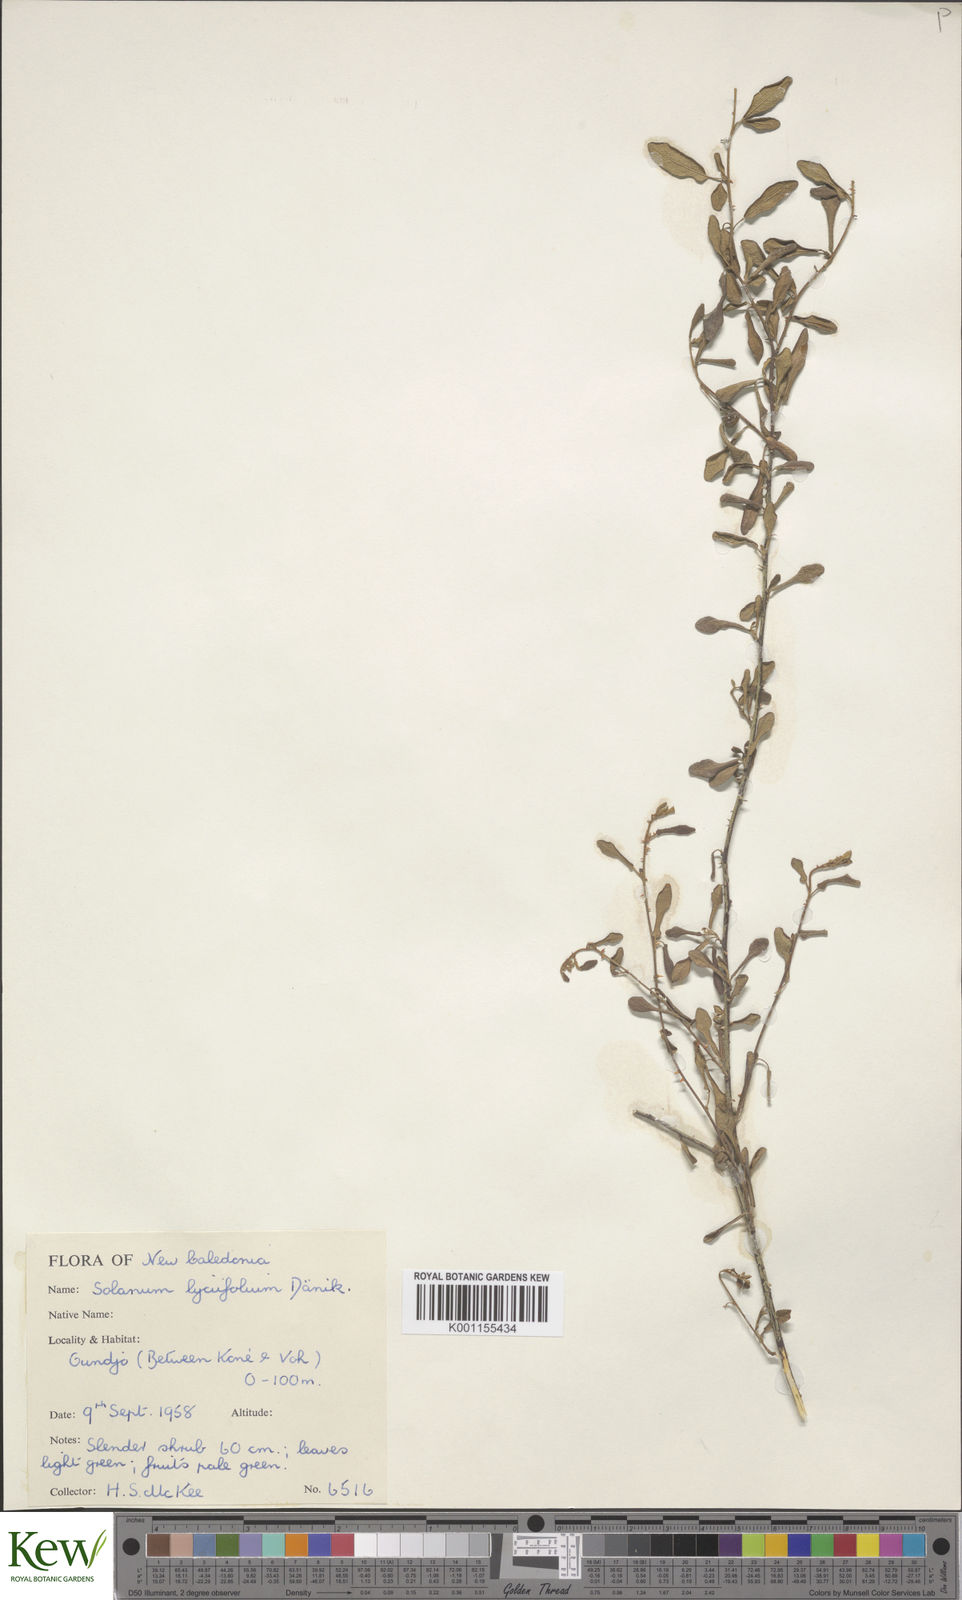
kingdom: Plantae
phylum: Tracheophyta
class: Magnoliopsida
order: Solanales
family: Solanaceae
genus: Solanum
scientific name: Solanum vaccinioides
